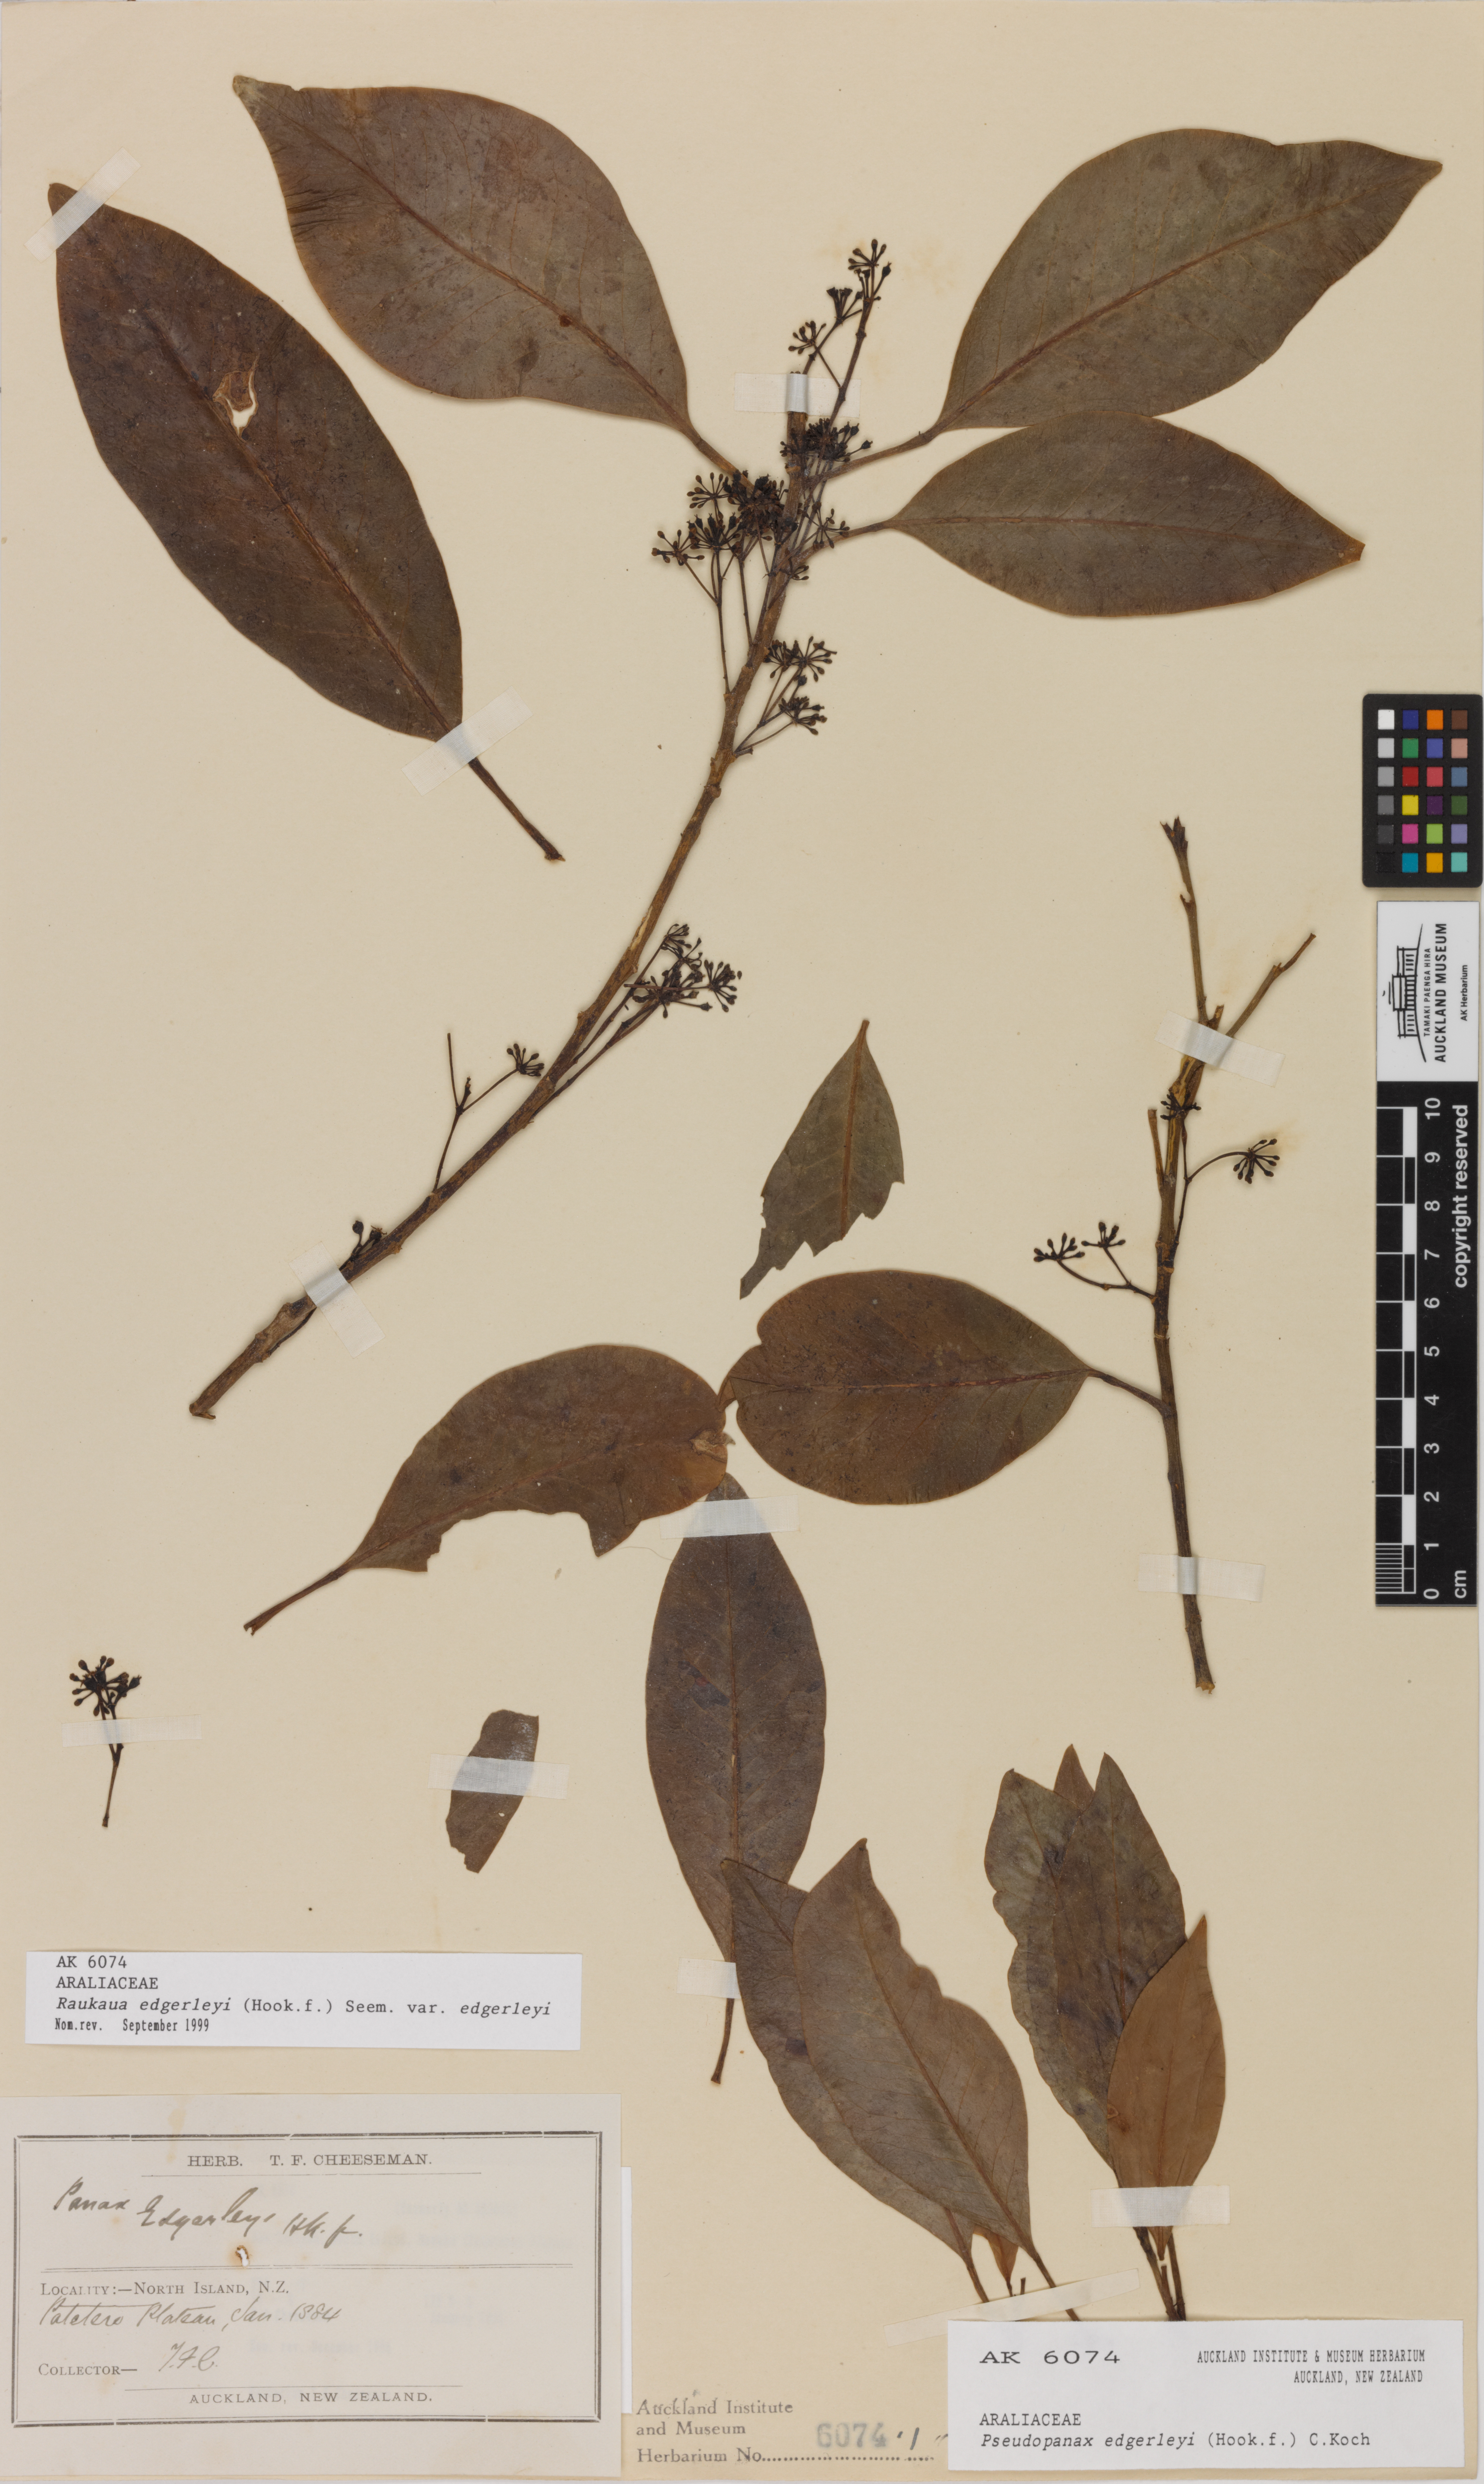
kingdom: Plantae
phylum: Tracheophyta
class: Magnoliopsida
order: Apiales
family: Araliaceae
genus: Raukaua
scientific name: Raukaua edgerleyi
